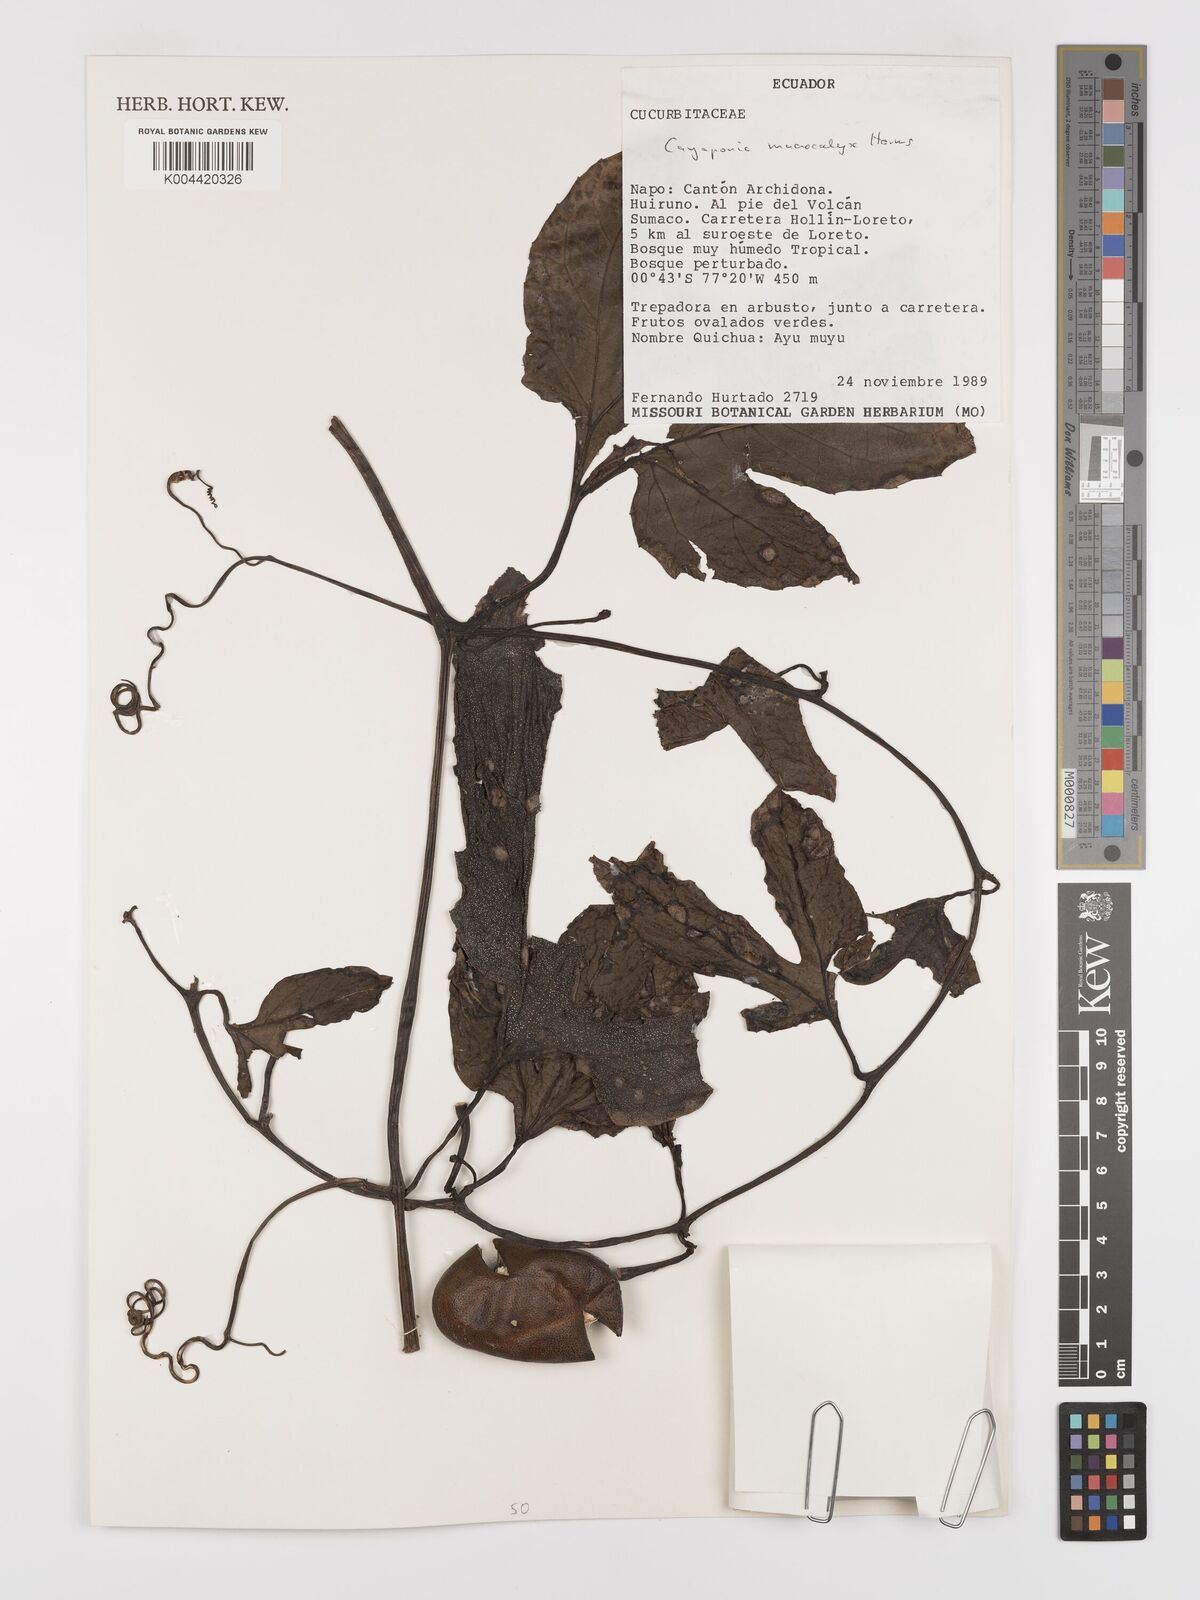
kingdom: Plantae
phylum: Tracheophyta
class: Magnoliopsida
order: Cucurbitales
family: Cucurbitaceae
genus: Cayaponia
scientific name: Cayaponia macrocalyx
